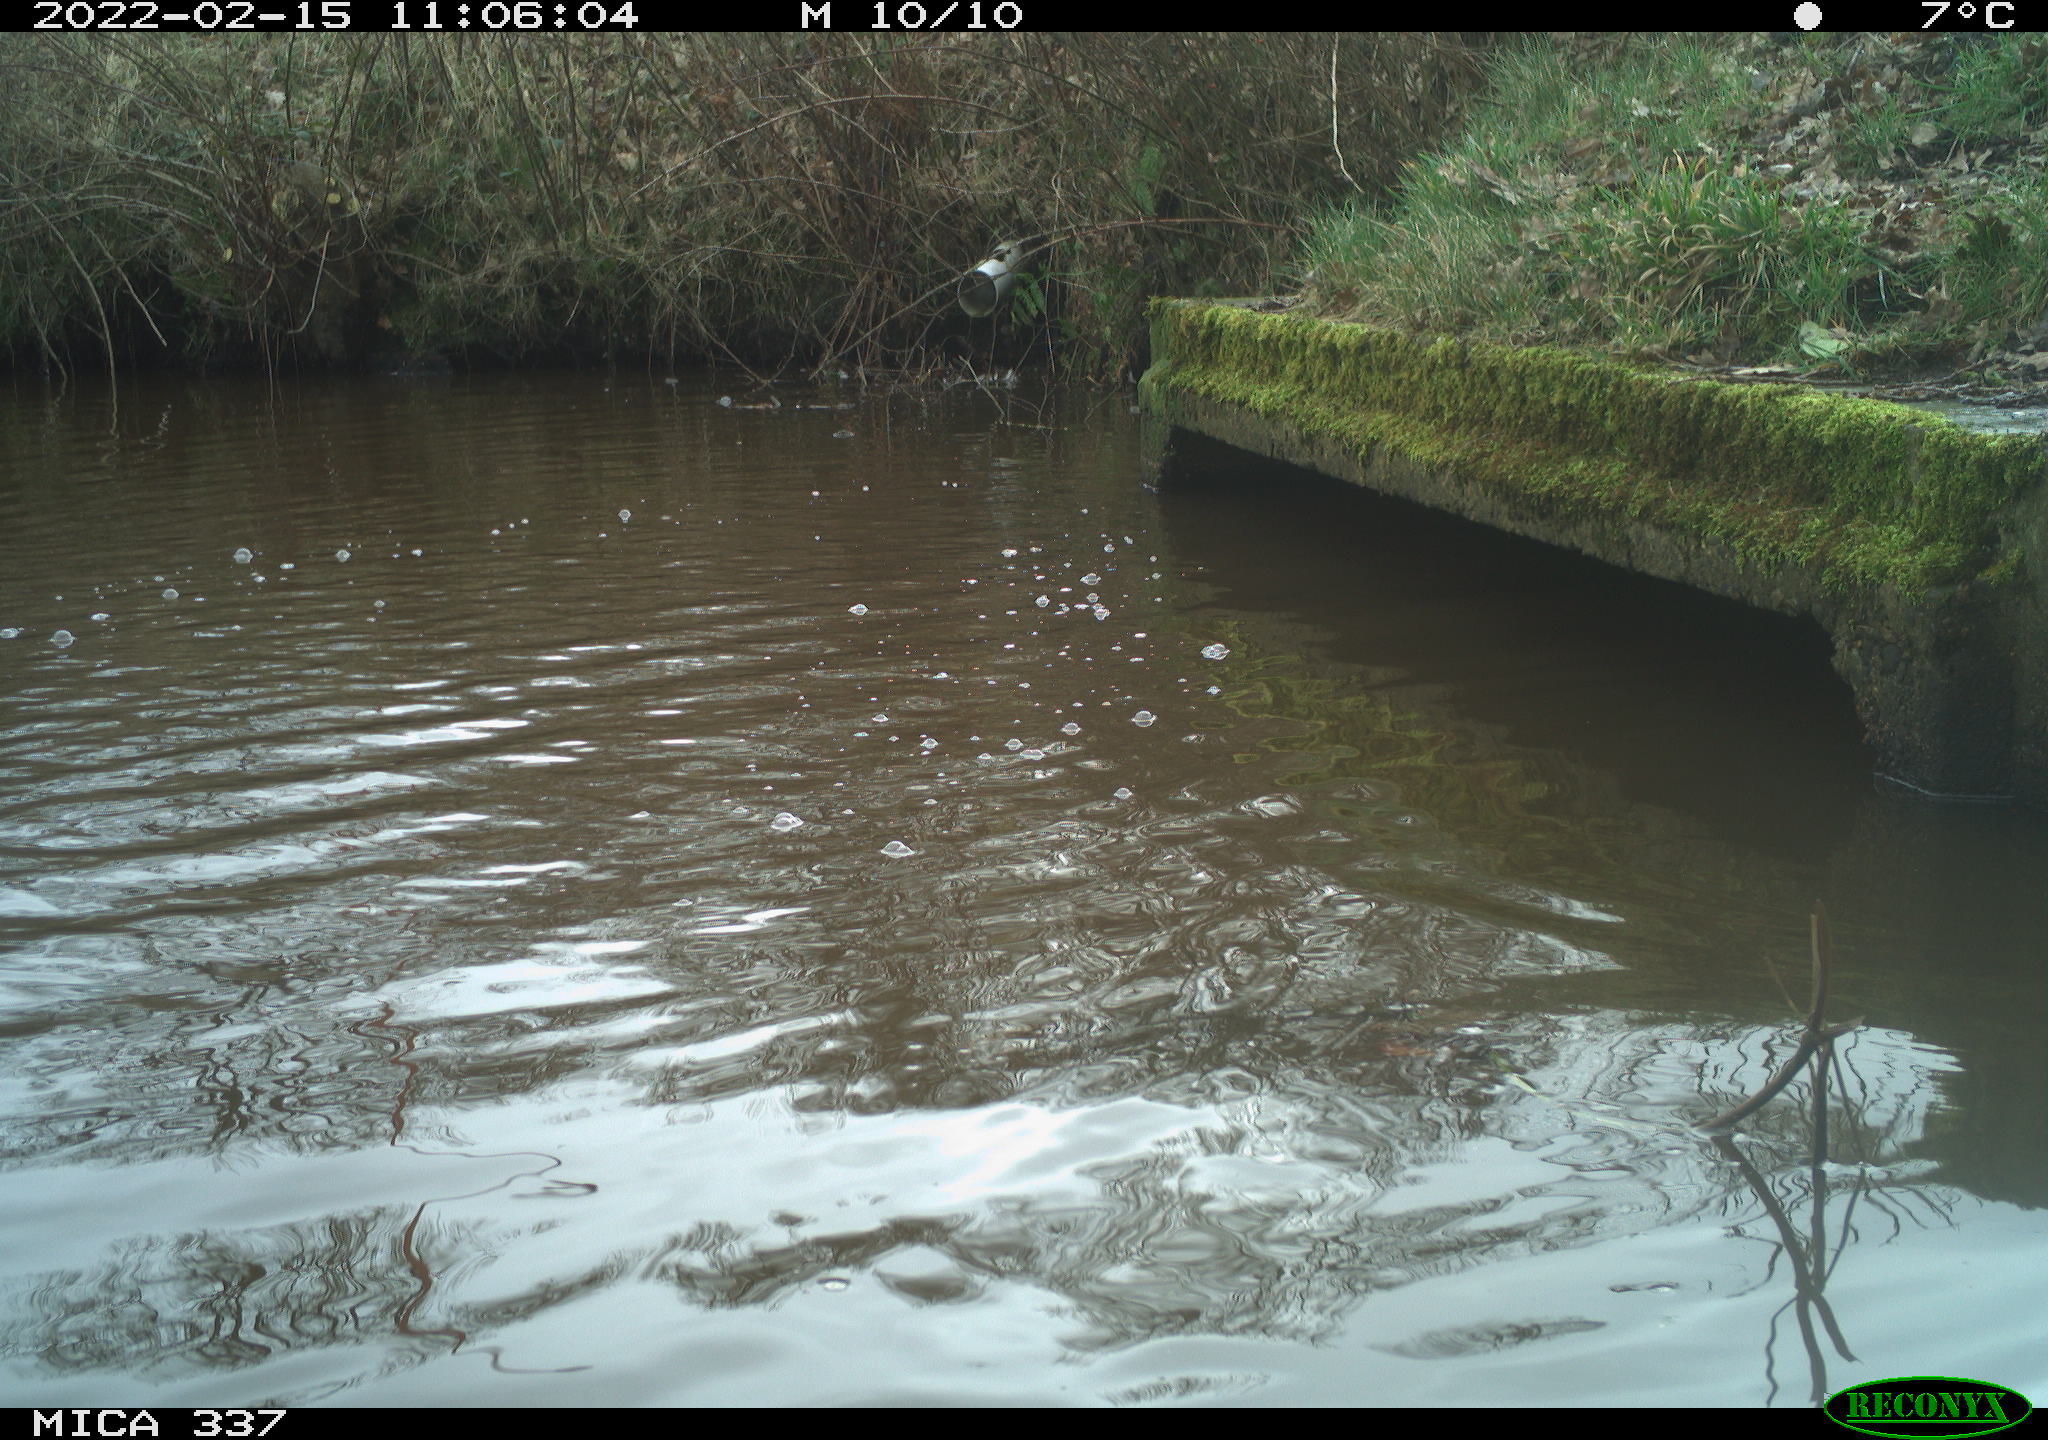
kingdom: Animalia
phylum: Chordata
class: Aves
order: Anseriformes
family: Anatidae
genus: Anas
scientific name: Anas platyrhynchos
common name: Mallard
